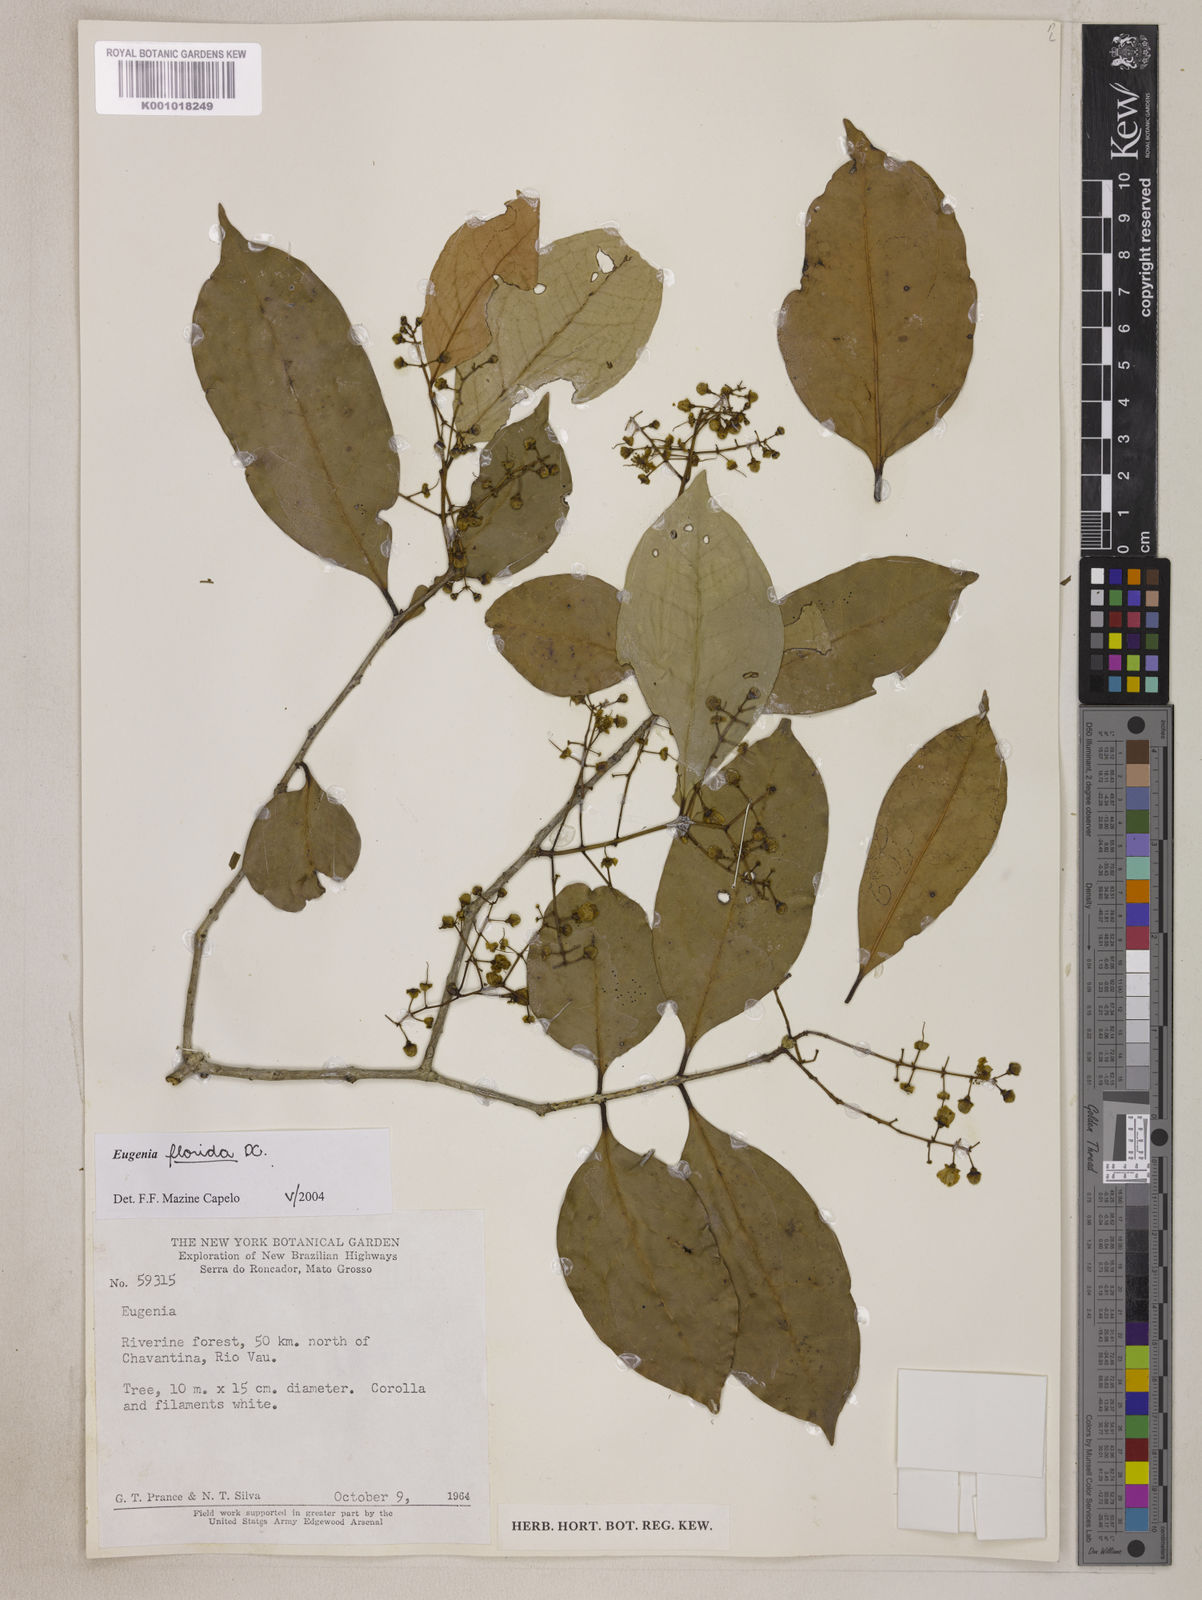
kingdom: Plantae
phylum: Tracheophyta
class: Magnoliopsida
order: Myrtales
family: Myrtaceae
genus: Eugenia
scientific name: Eugenia florida
